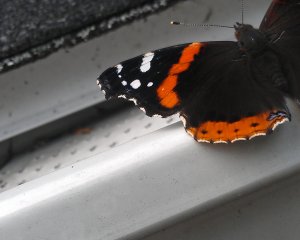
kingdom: Animalia
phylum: Arthropoda
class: Insecta
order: Lepidoptera
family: Nymphalidae
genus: Vanessa
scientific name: Vanessa atalanta
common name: Red Admiral
